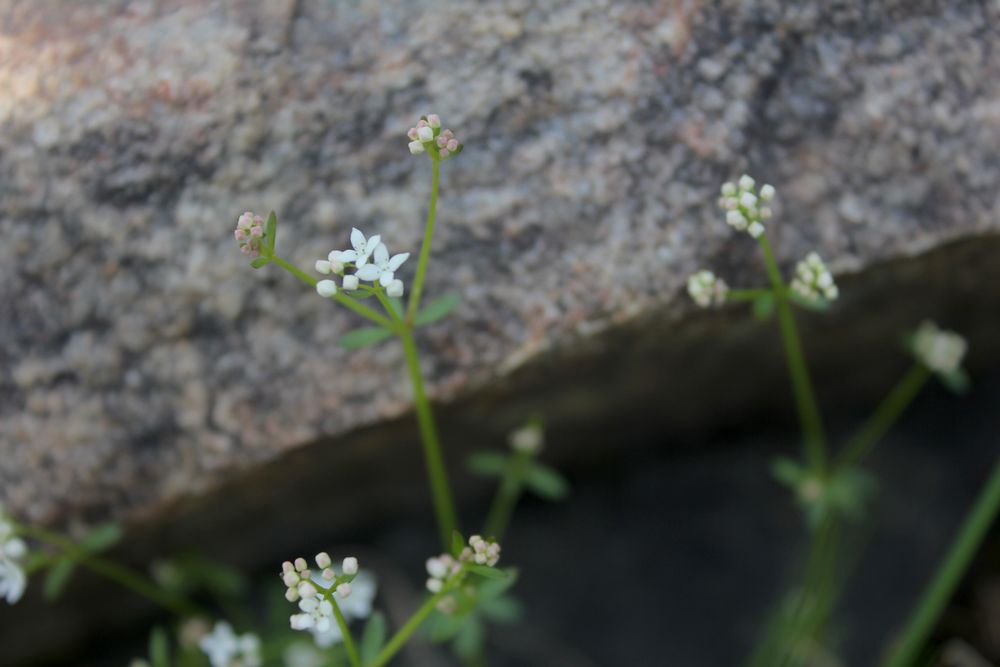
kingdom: Plantae
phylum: Tracheophyta
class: Magnoliopsida
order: Gentianales
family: Rubiaceae
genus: Galium
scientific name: Galium
